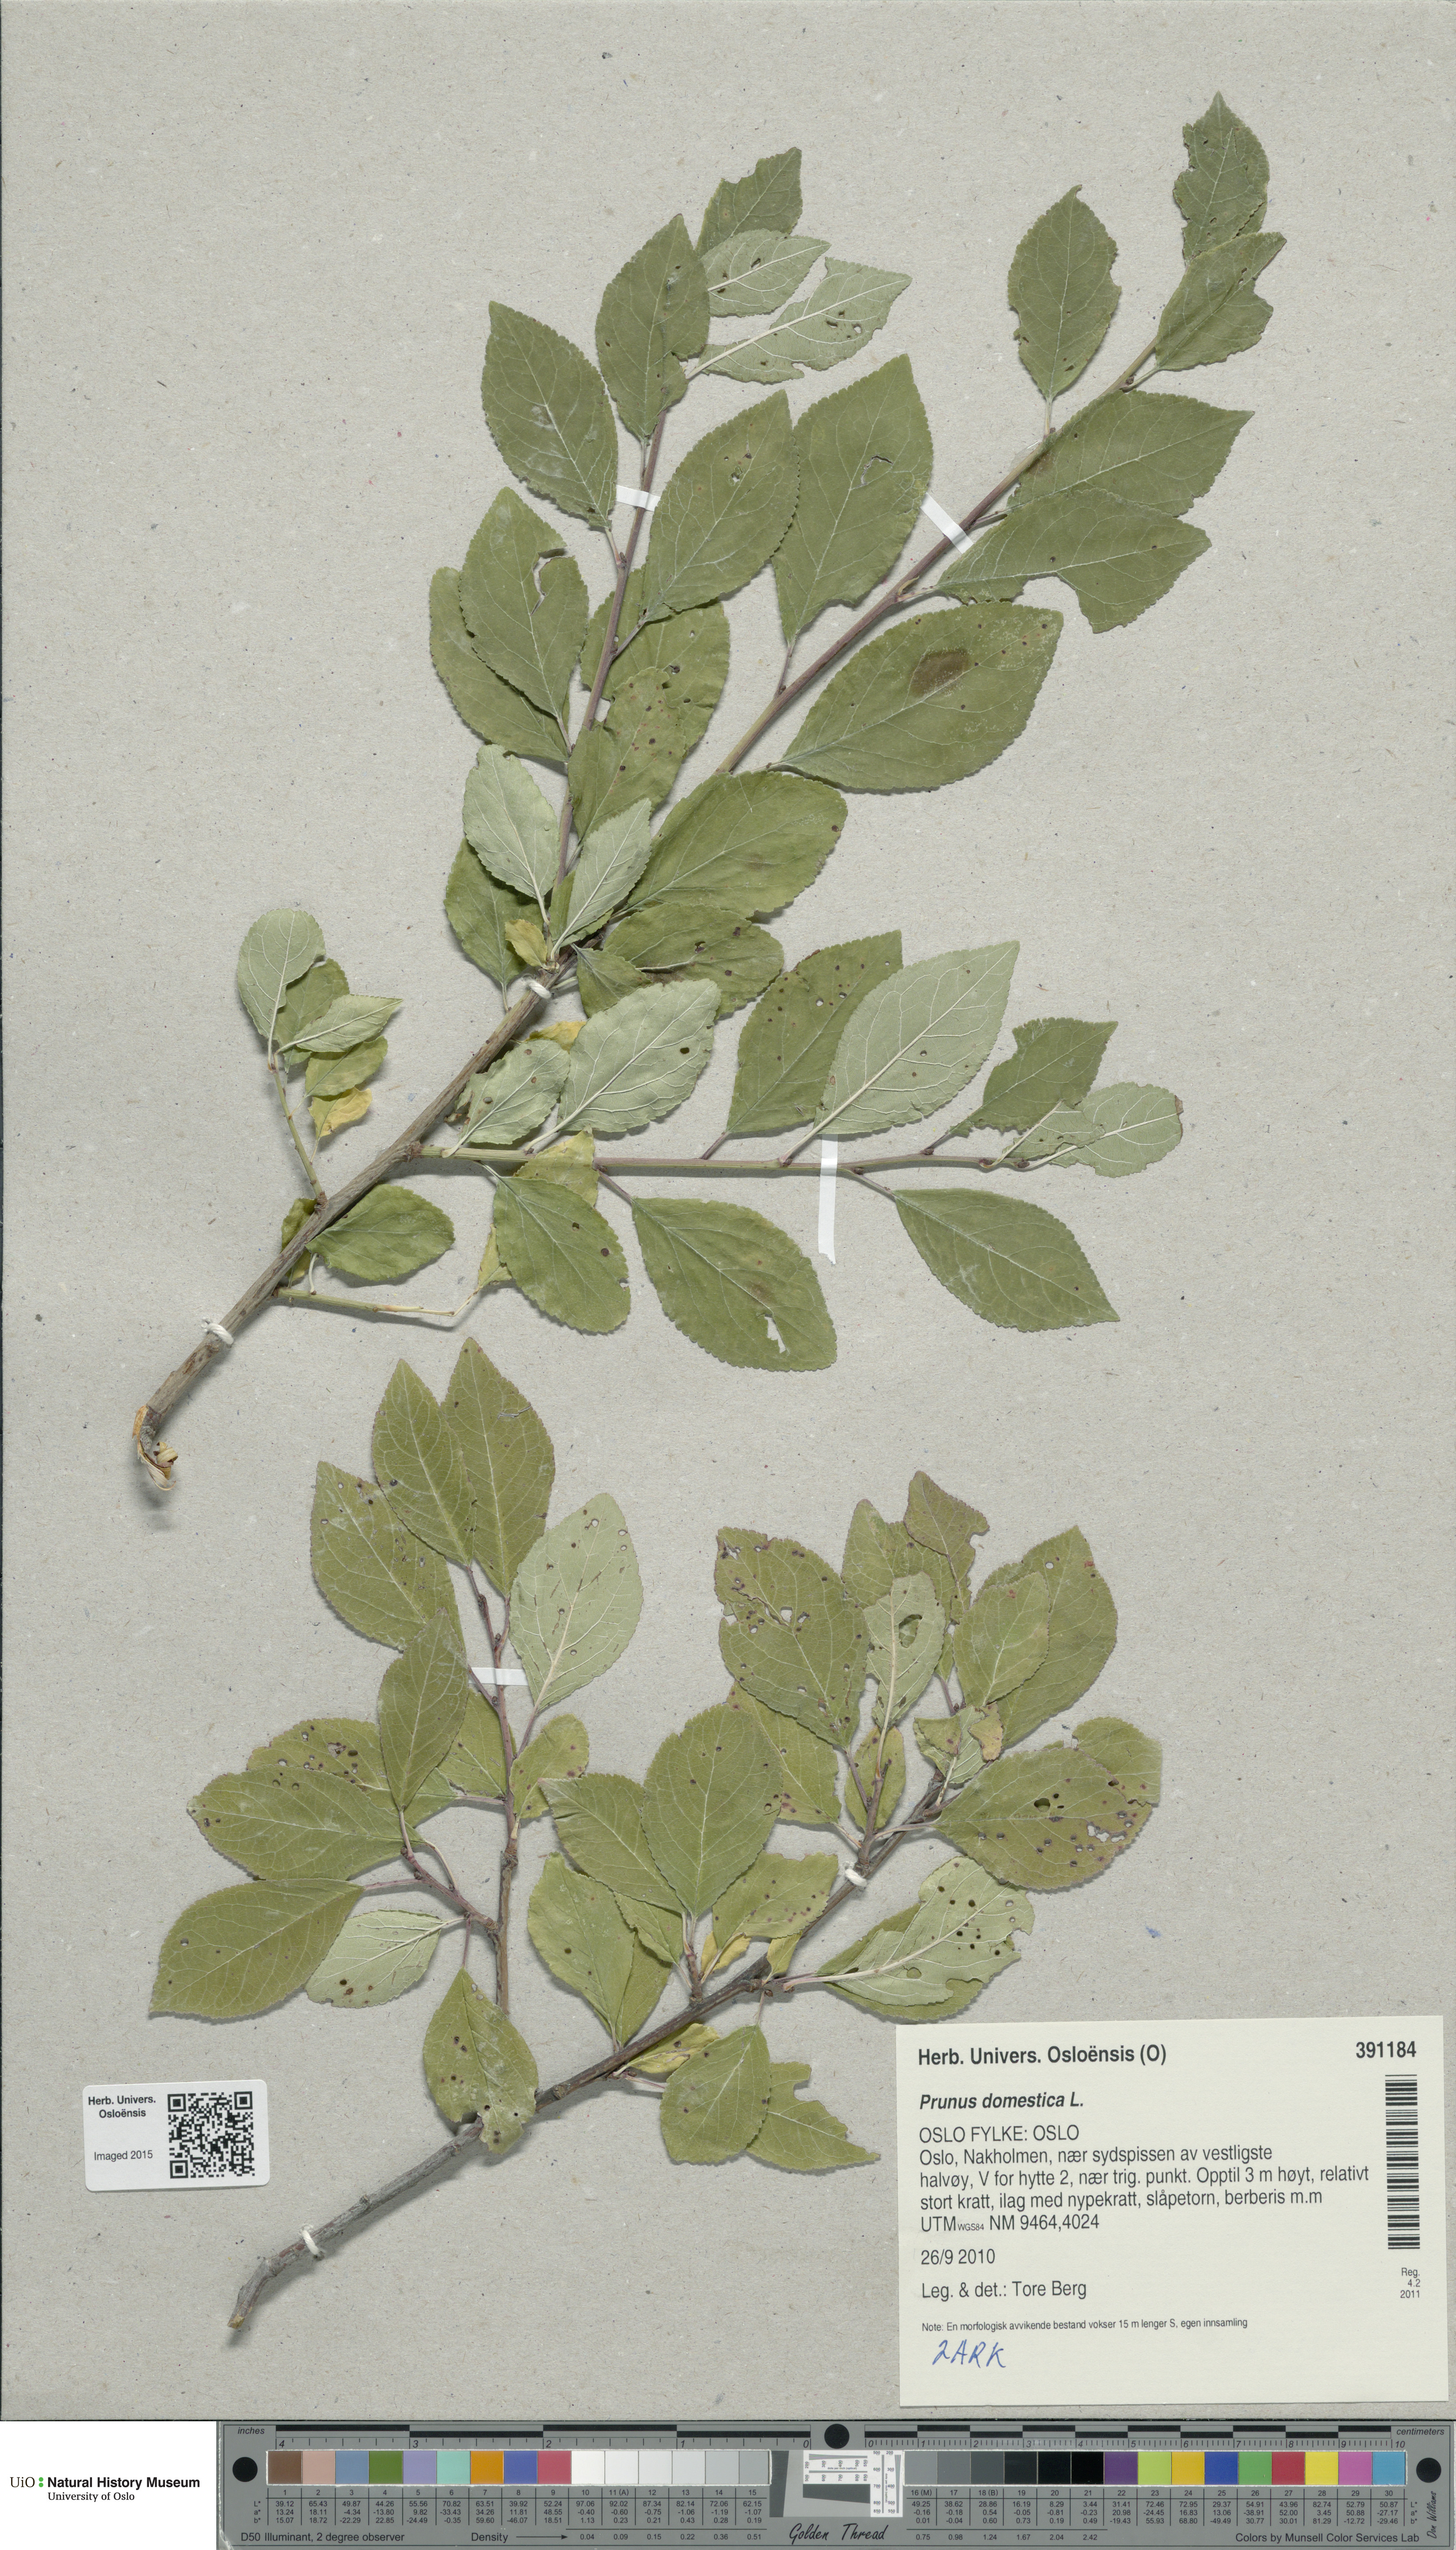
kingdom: Plantae
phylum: Tracheophyta
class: Magnoliopsida
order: Rosales
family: Rosaceae
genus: Prunus
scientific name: Prunus domestica
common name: Wild plum
